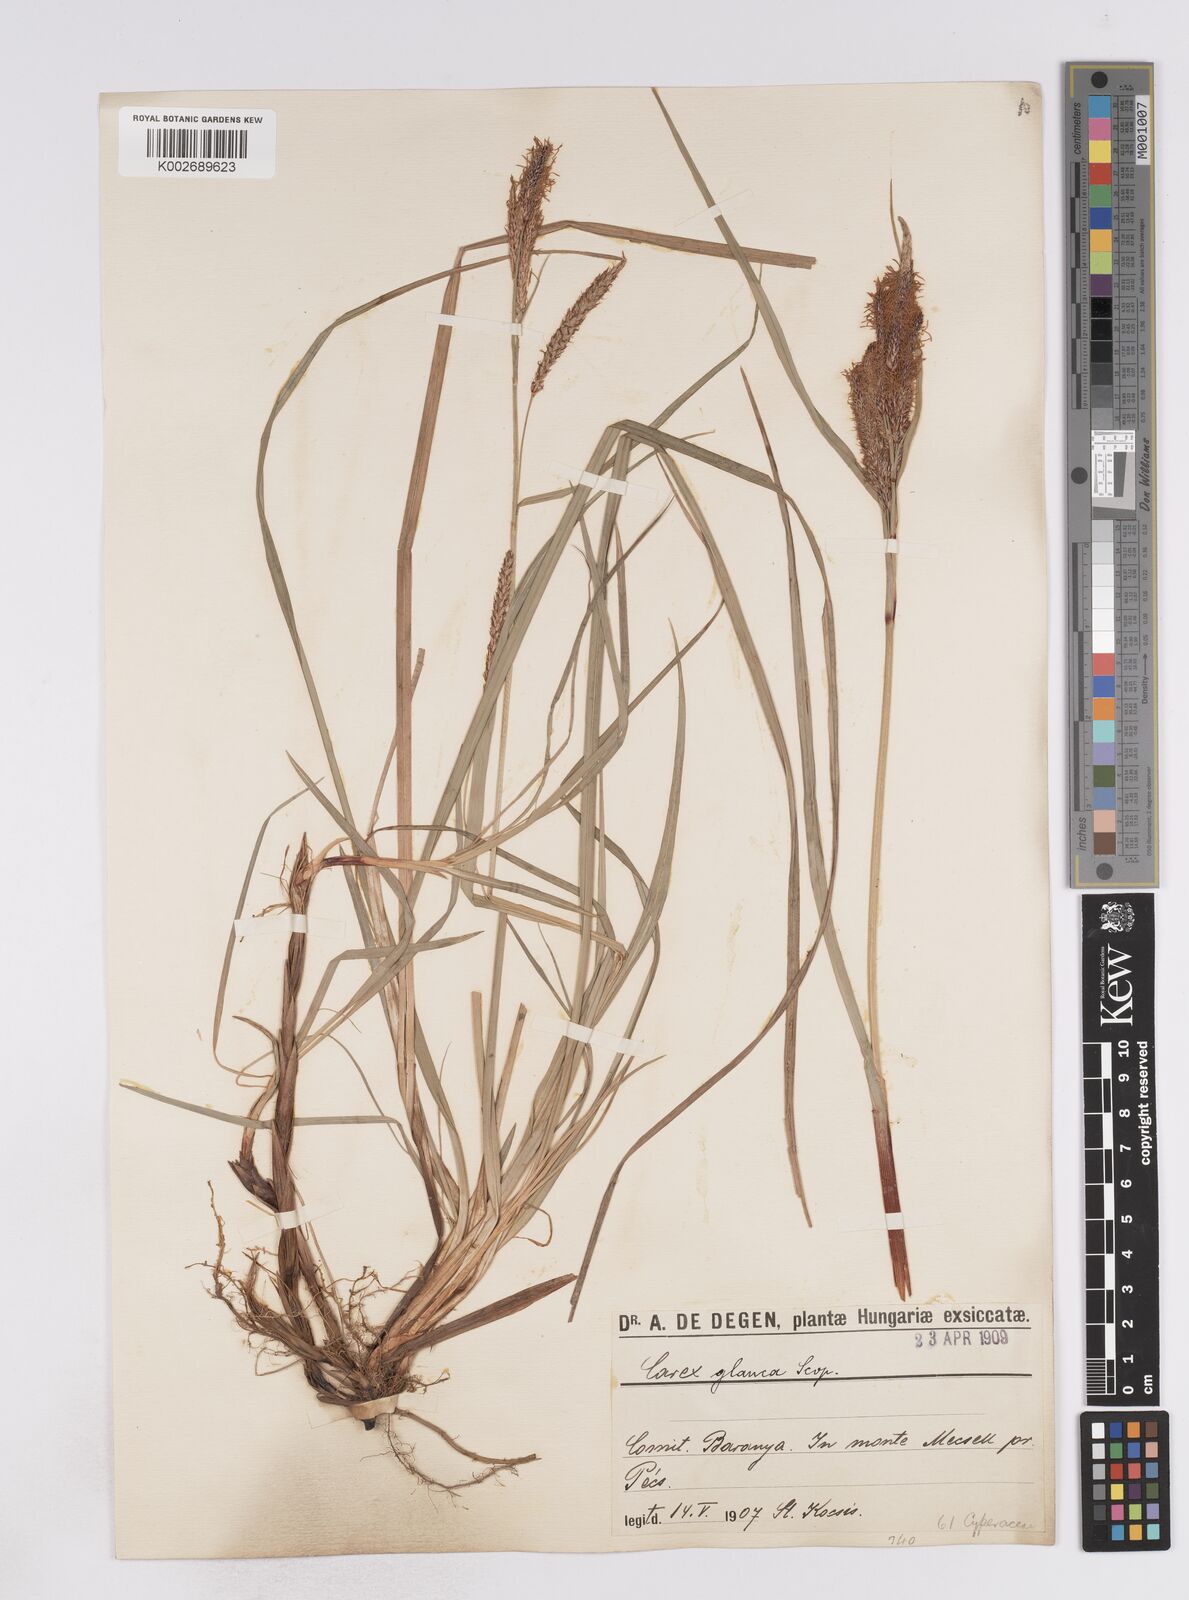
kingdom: Plantae
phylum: Tracheophyta
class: Liliopsida
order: Poales
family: Cyperaceae
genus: Carex
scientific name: Carex flacca
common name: Glaucous sedge
